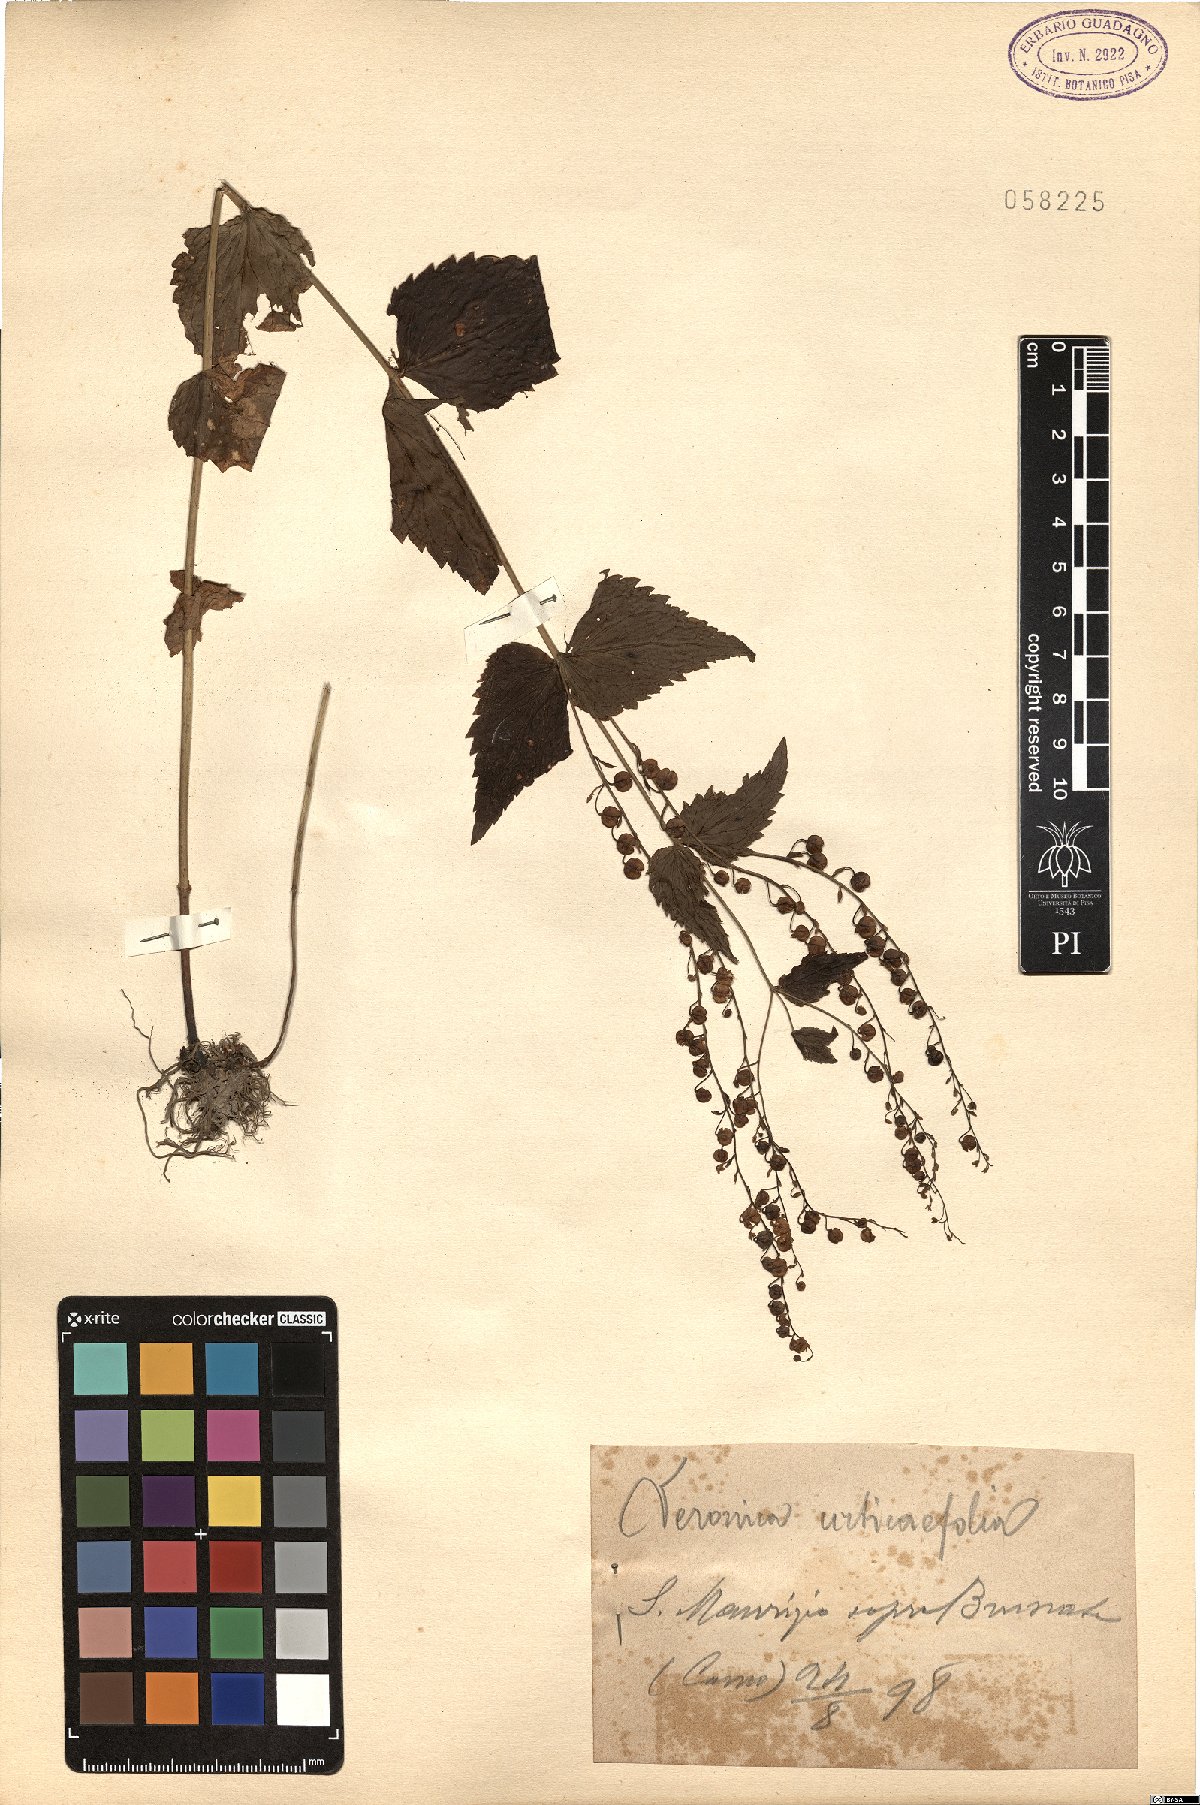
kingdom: Plantae
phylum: Tracheophyta
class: Magnoliopsida
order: Lamiales
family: Plantaginaceae
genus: Veronica
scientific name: Veronica urticifolia
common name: Nettle-leaf speedwell
